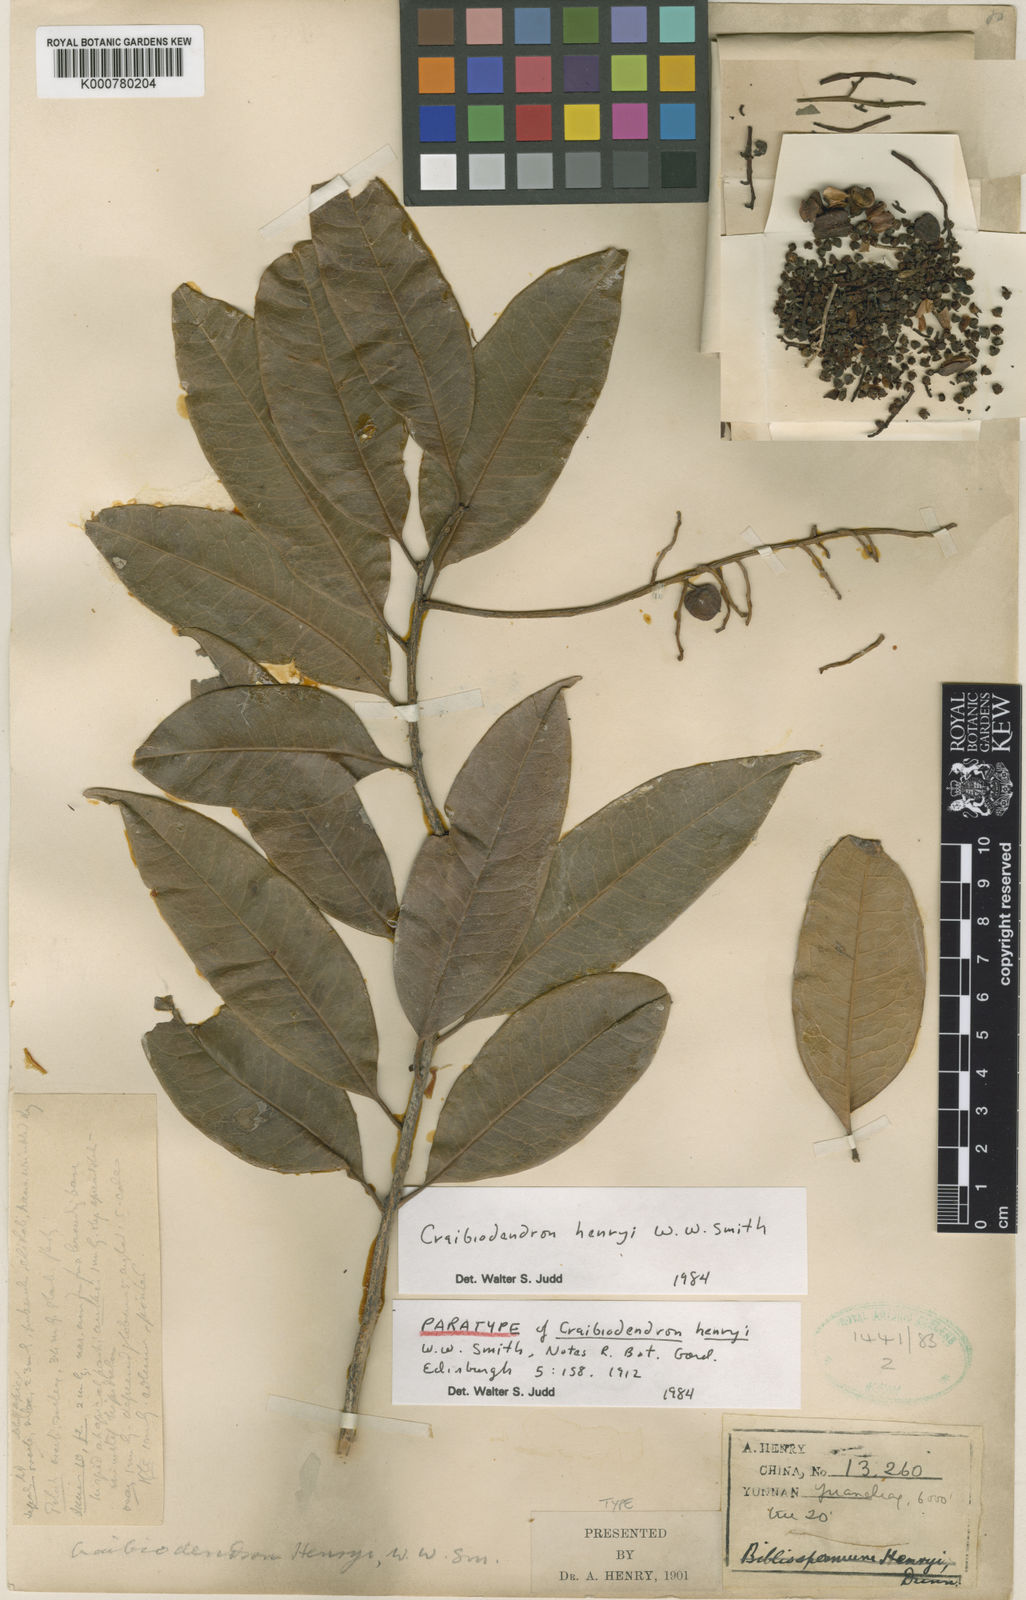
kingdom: Plantae
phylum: Tracheophyta
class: Magnoliopsida
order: Ericales
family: Ericaceae
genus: Craibiodendron
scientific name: Craibiodendron henryi
